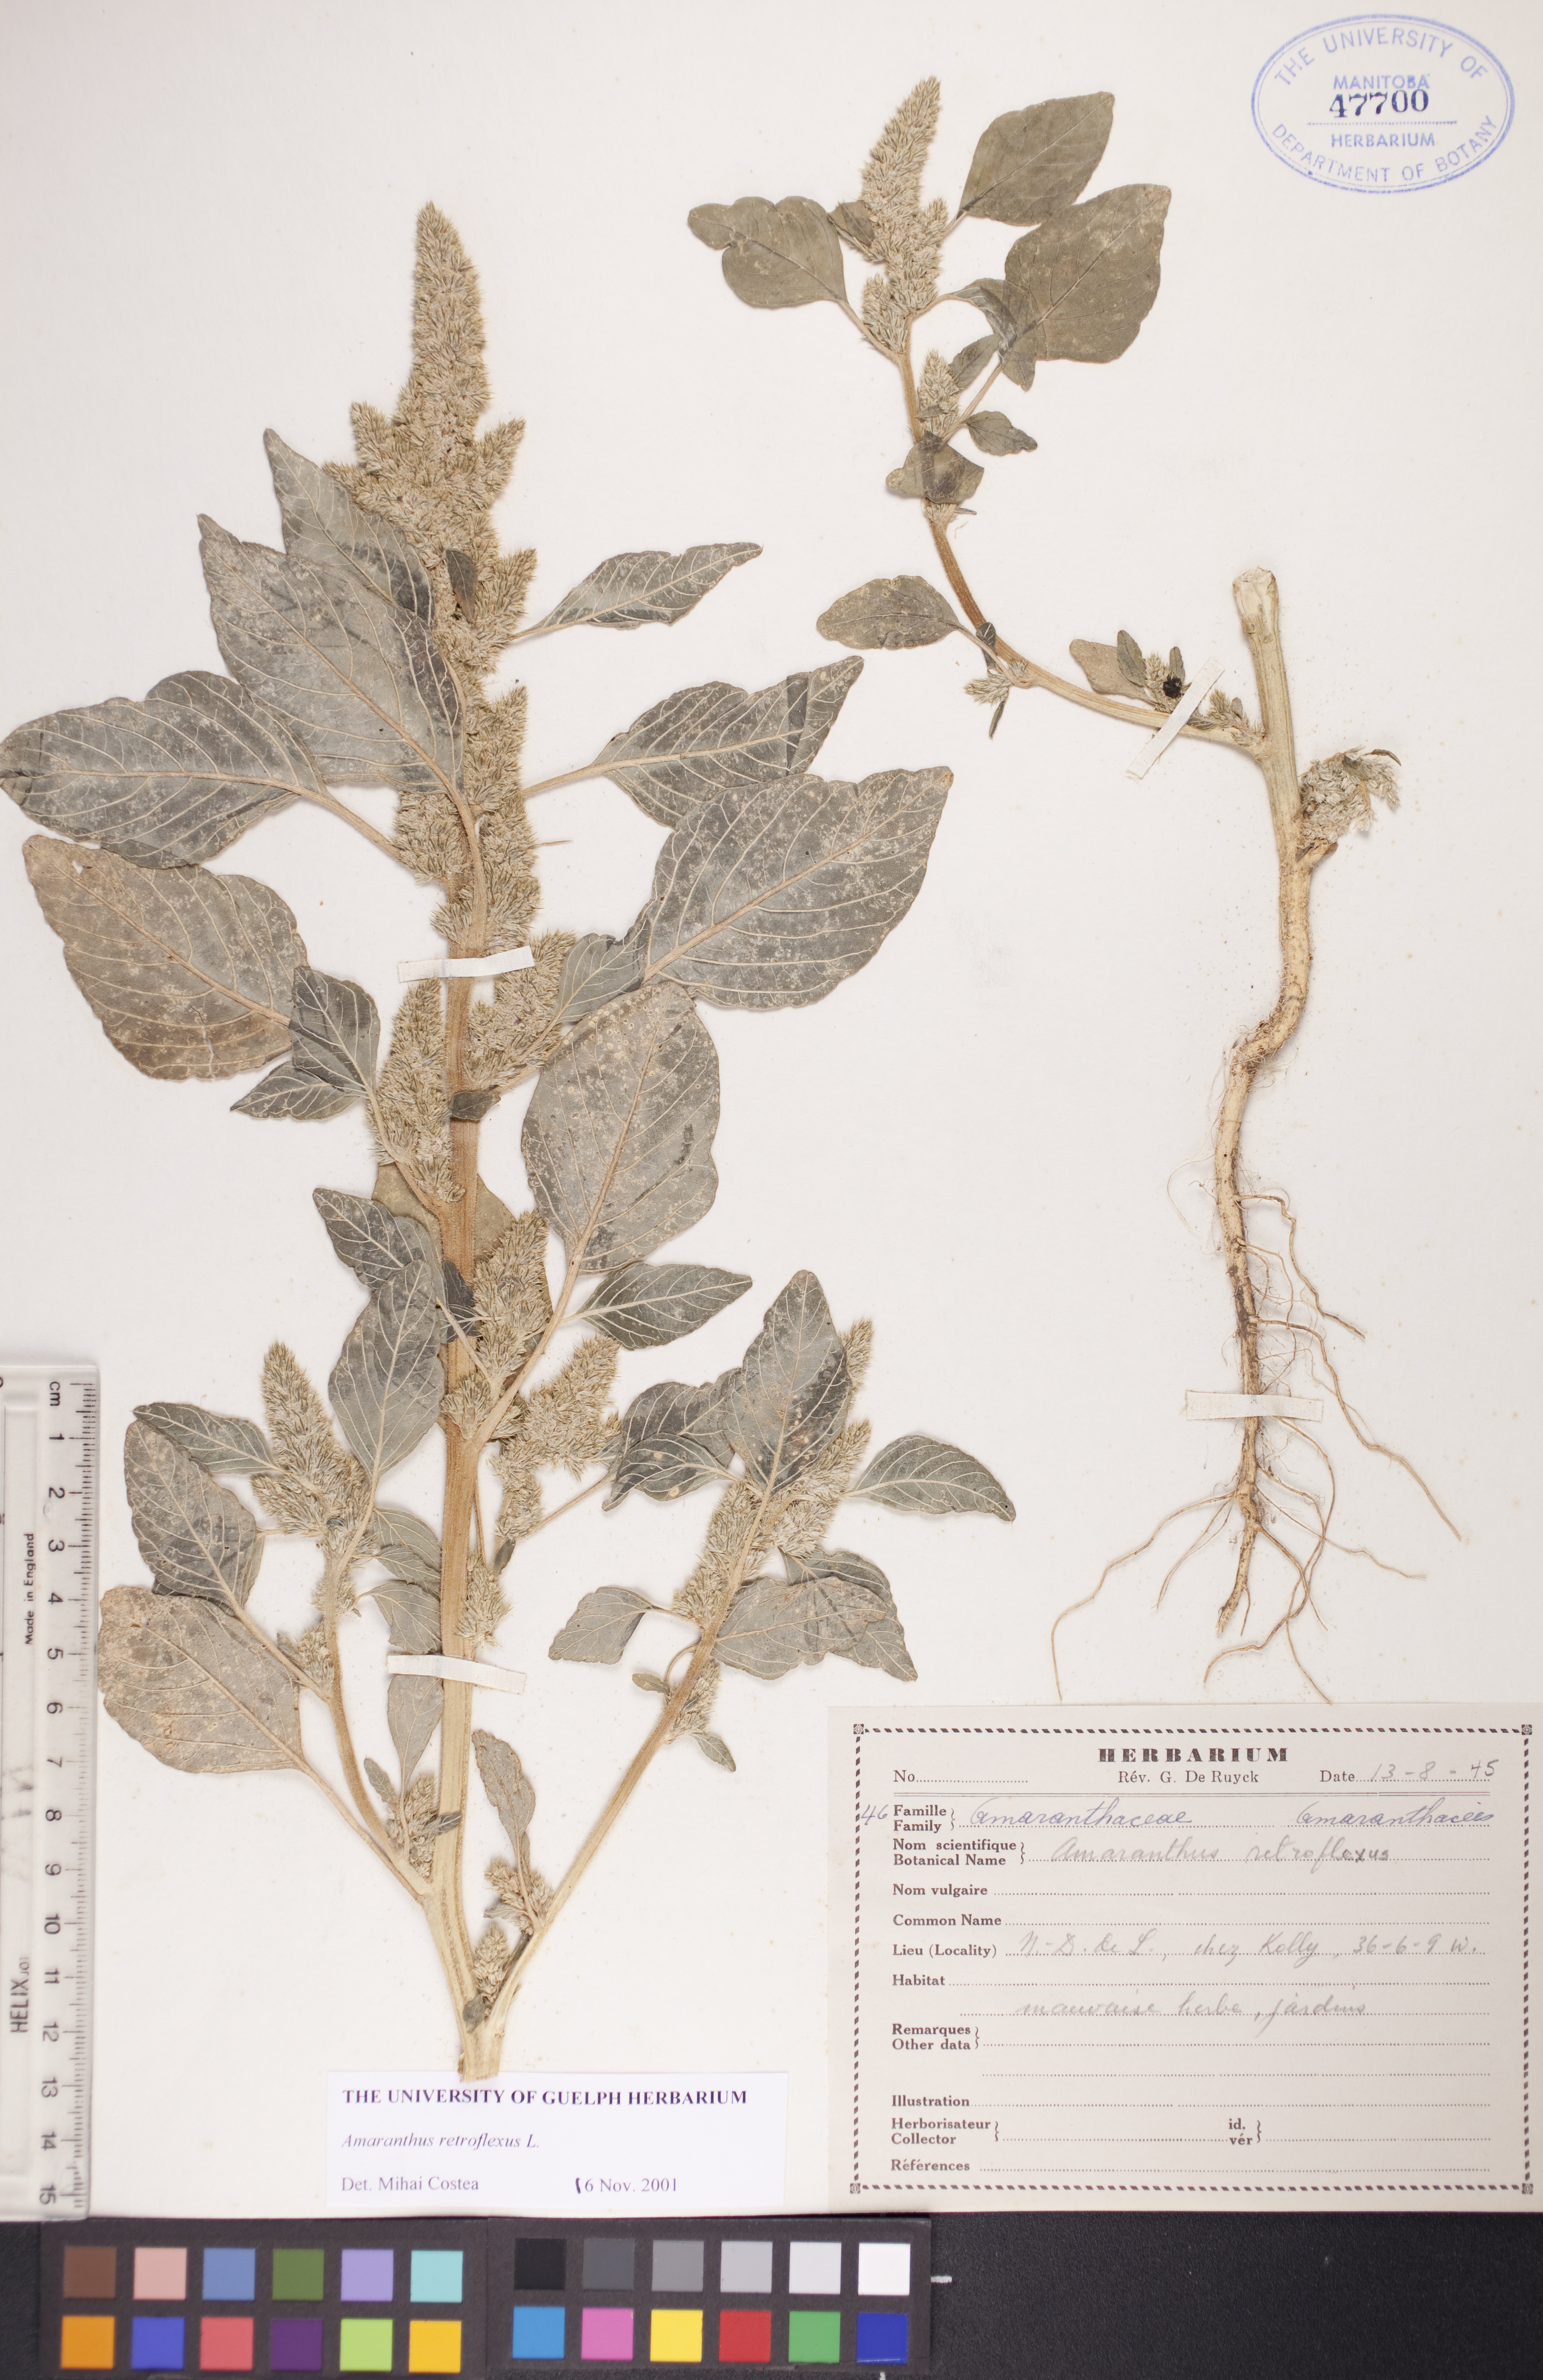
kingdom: Plantae
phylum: Tracheophyta
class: Magnoliopsida
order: Caryophyllales
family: Amaranthaceae
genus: Amaranthus
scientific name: Amaranthus retroflexus
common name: Redroot amaranth
